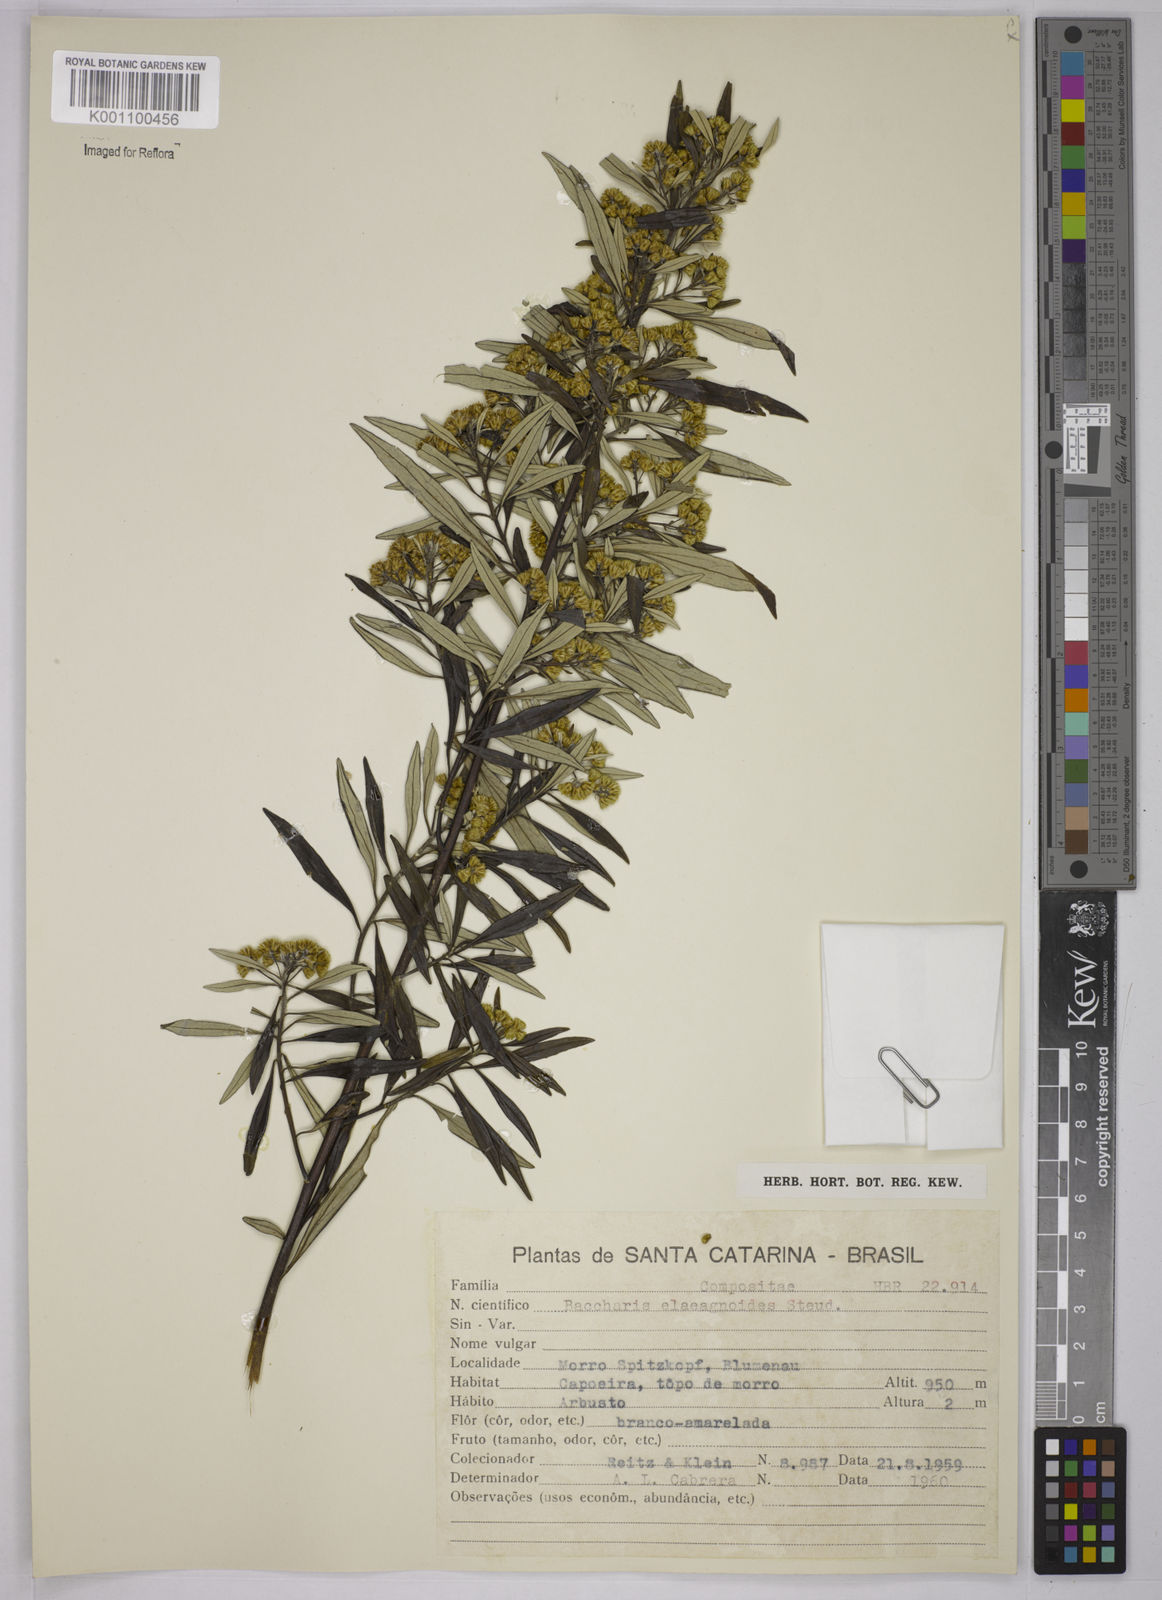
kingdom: Plantae
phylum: Tracheophyta
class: Magnoliopsida
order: Asterales
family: Asteraceae
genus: Baccharis
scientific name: Baccharis
